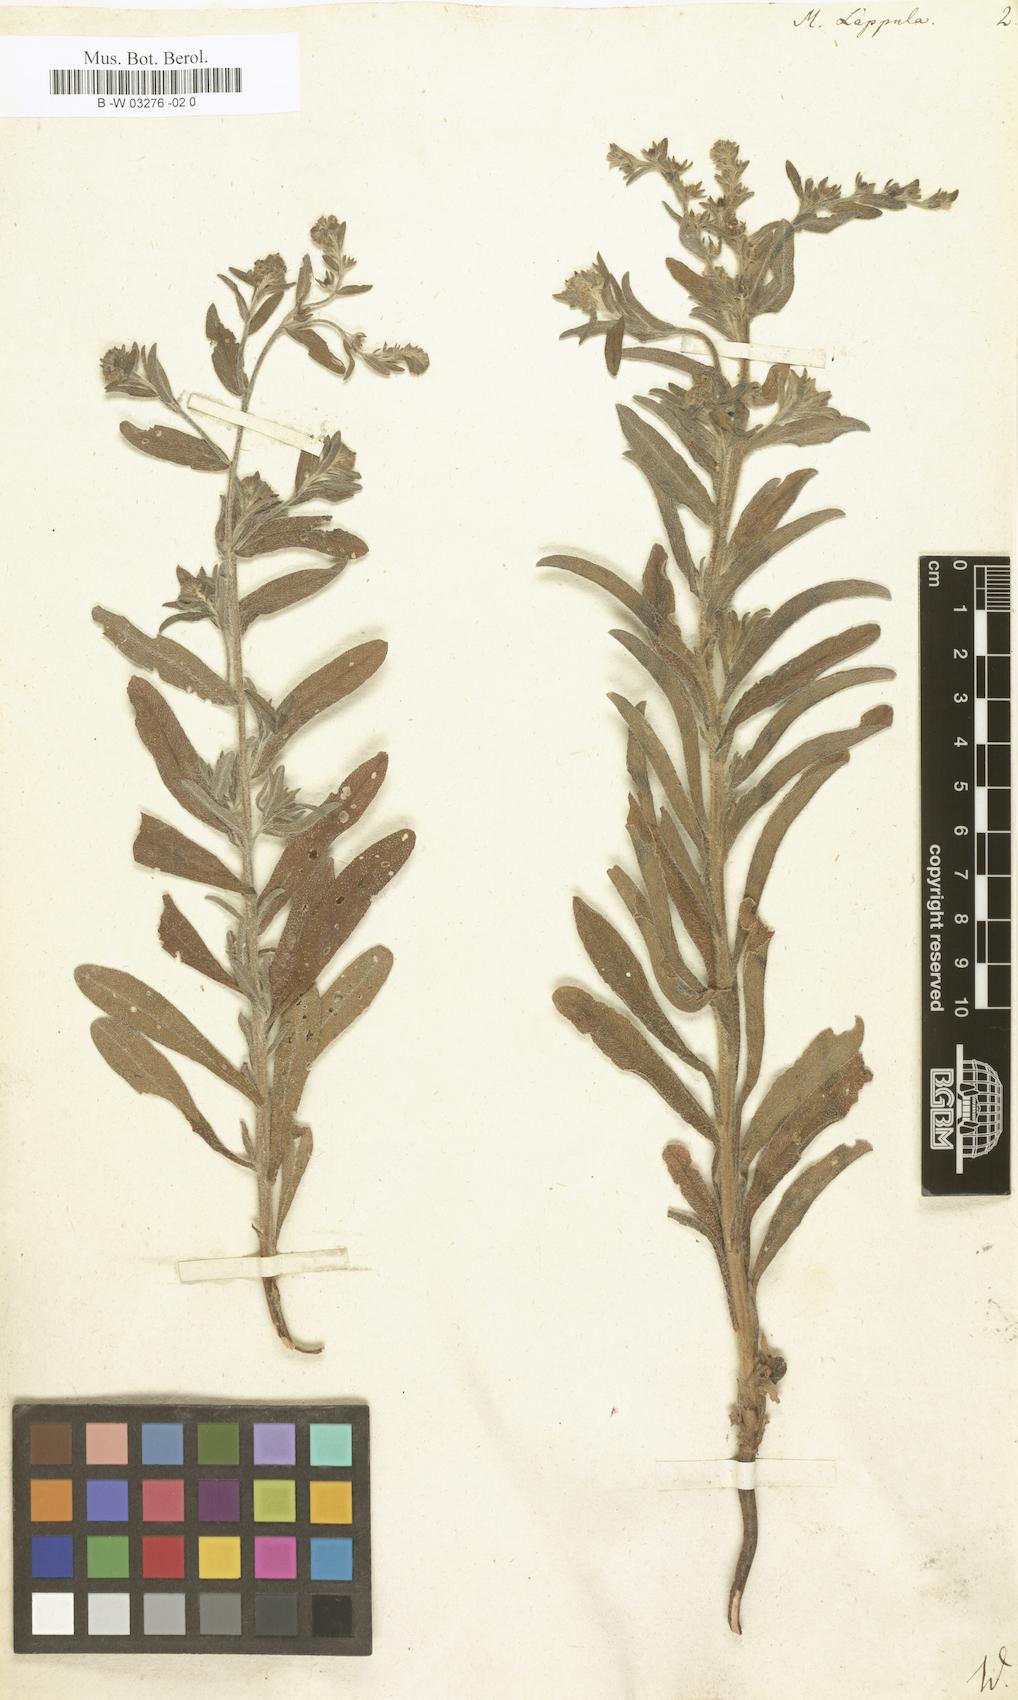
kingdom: Plantae
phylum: Tracheophyta
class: Magnoliopsida
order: Boraginales
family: Boraginaceae
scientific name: Boraginaceae
